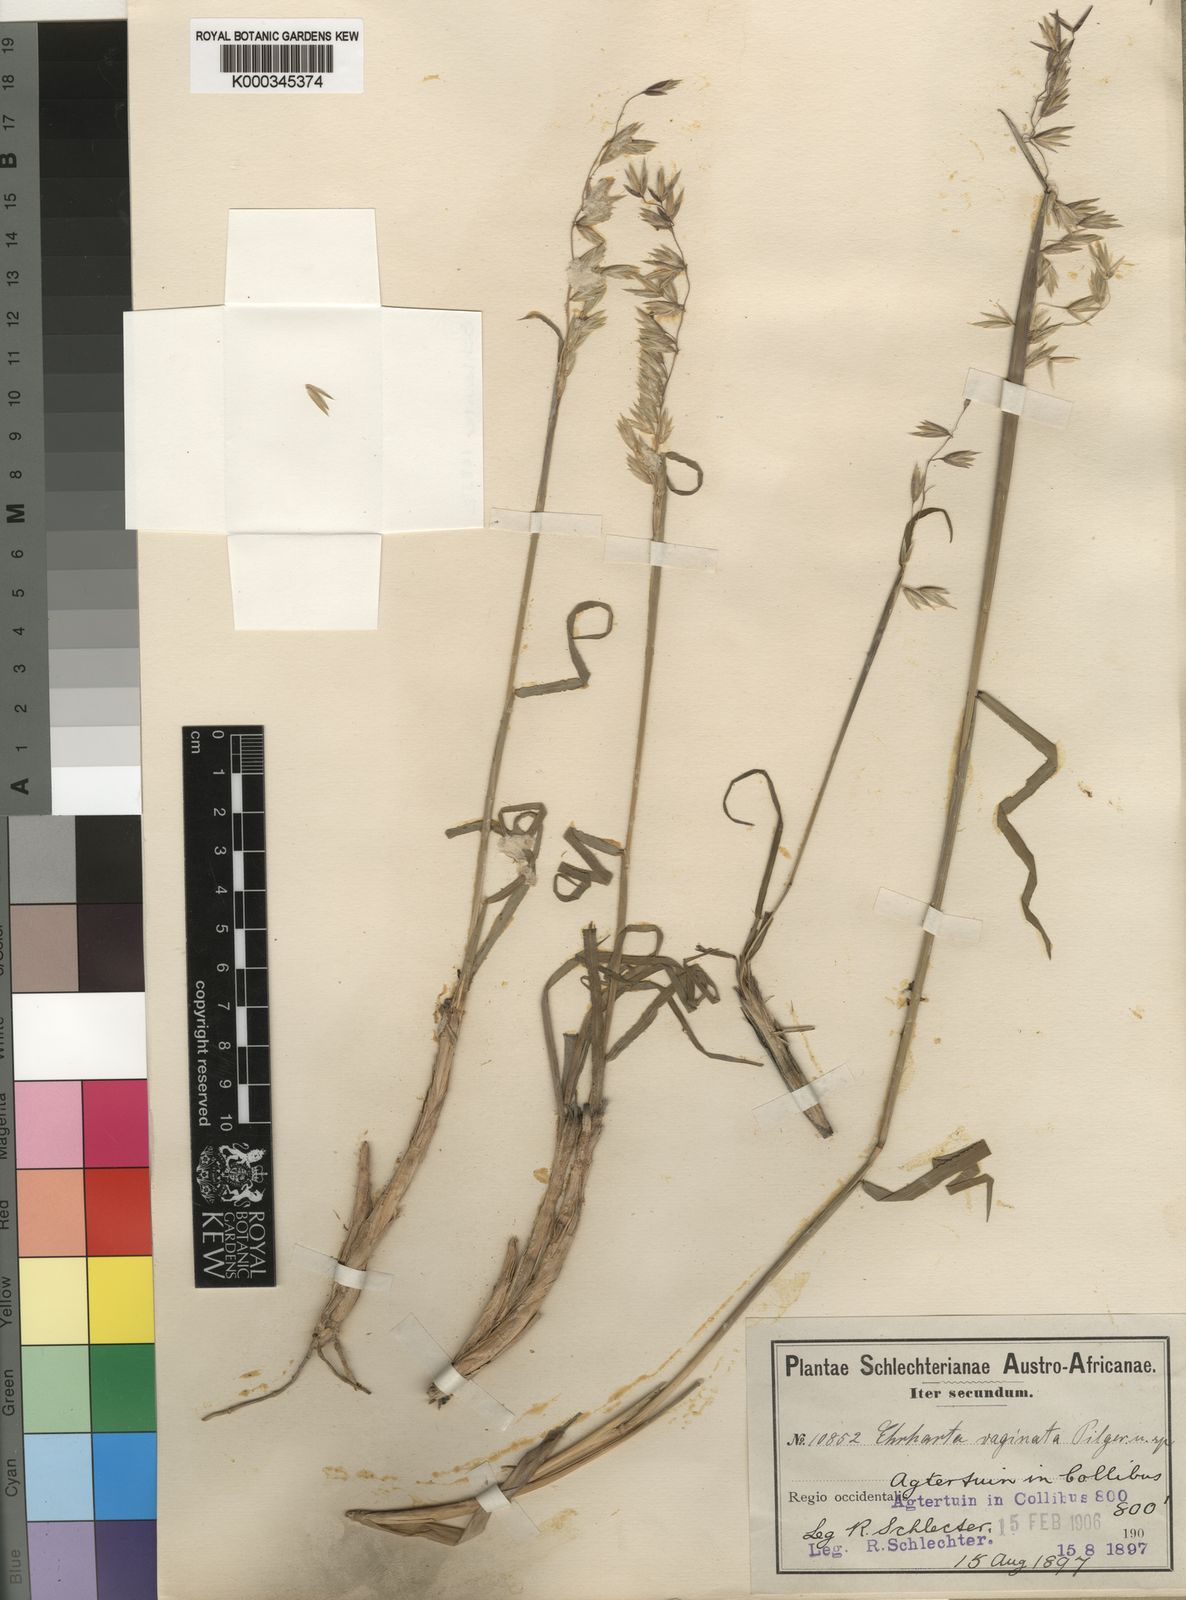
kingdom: Plantae
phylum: Tracheophyta
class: Liliopsida
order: Poales
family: Poaceae
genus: Ehrharta
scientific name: Ehrharta calycina
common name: Perennial veldtgrass
